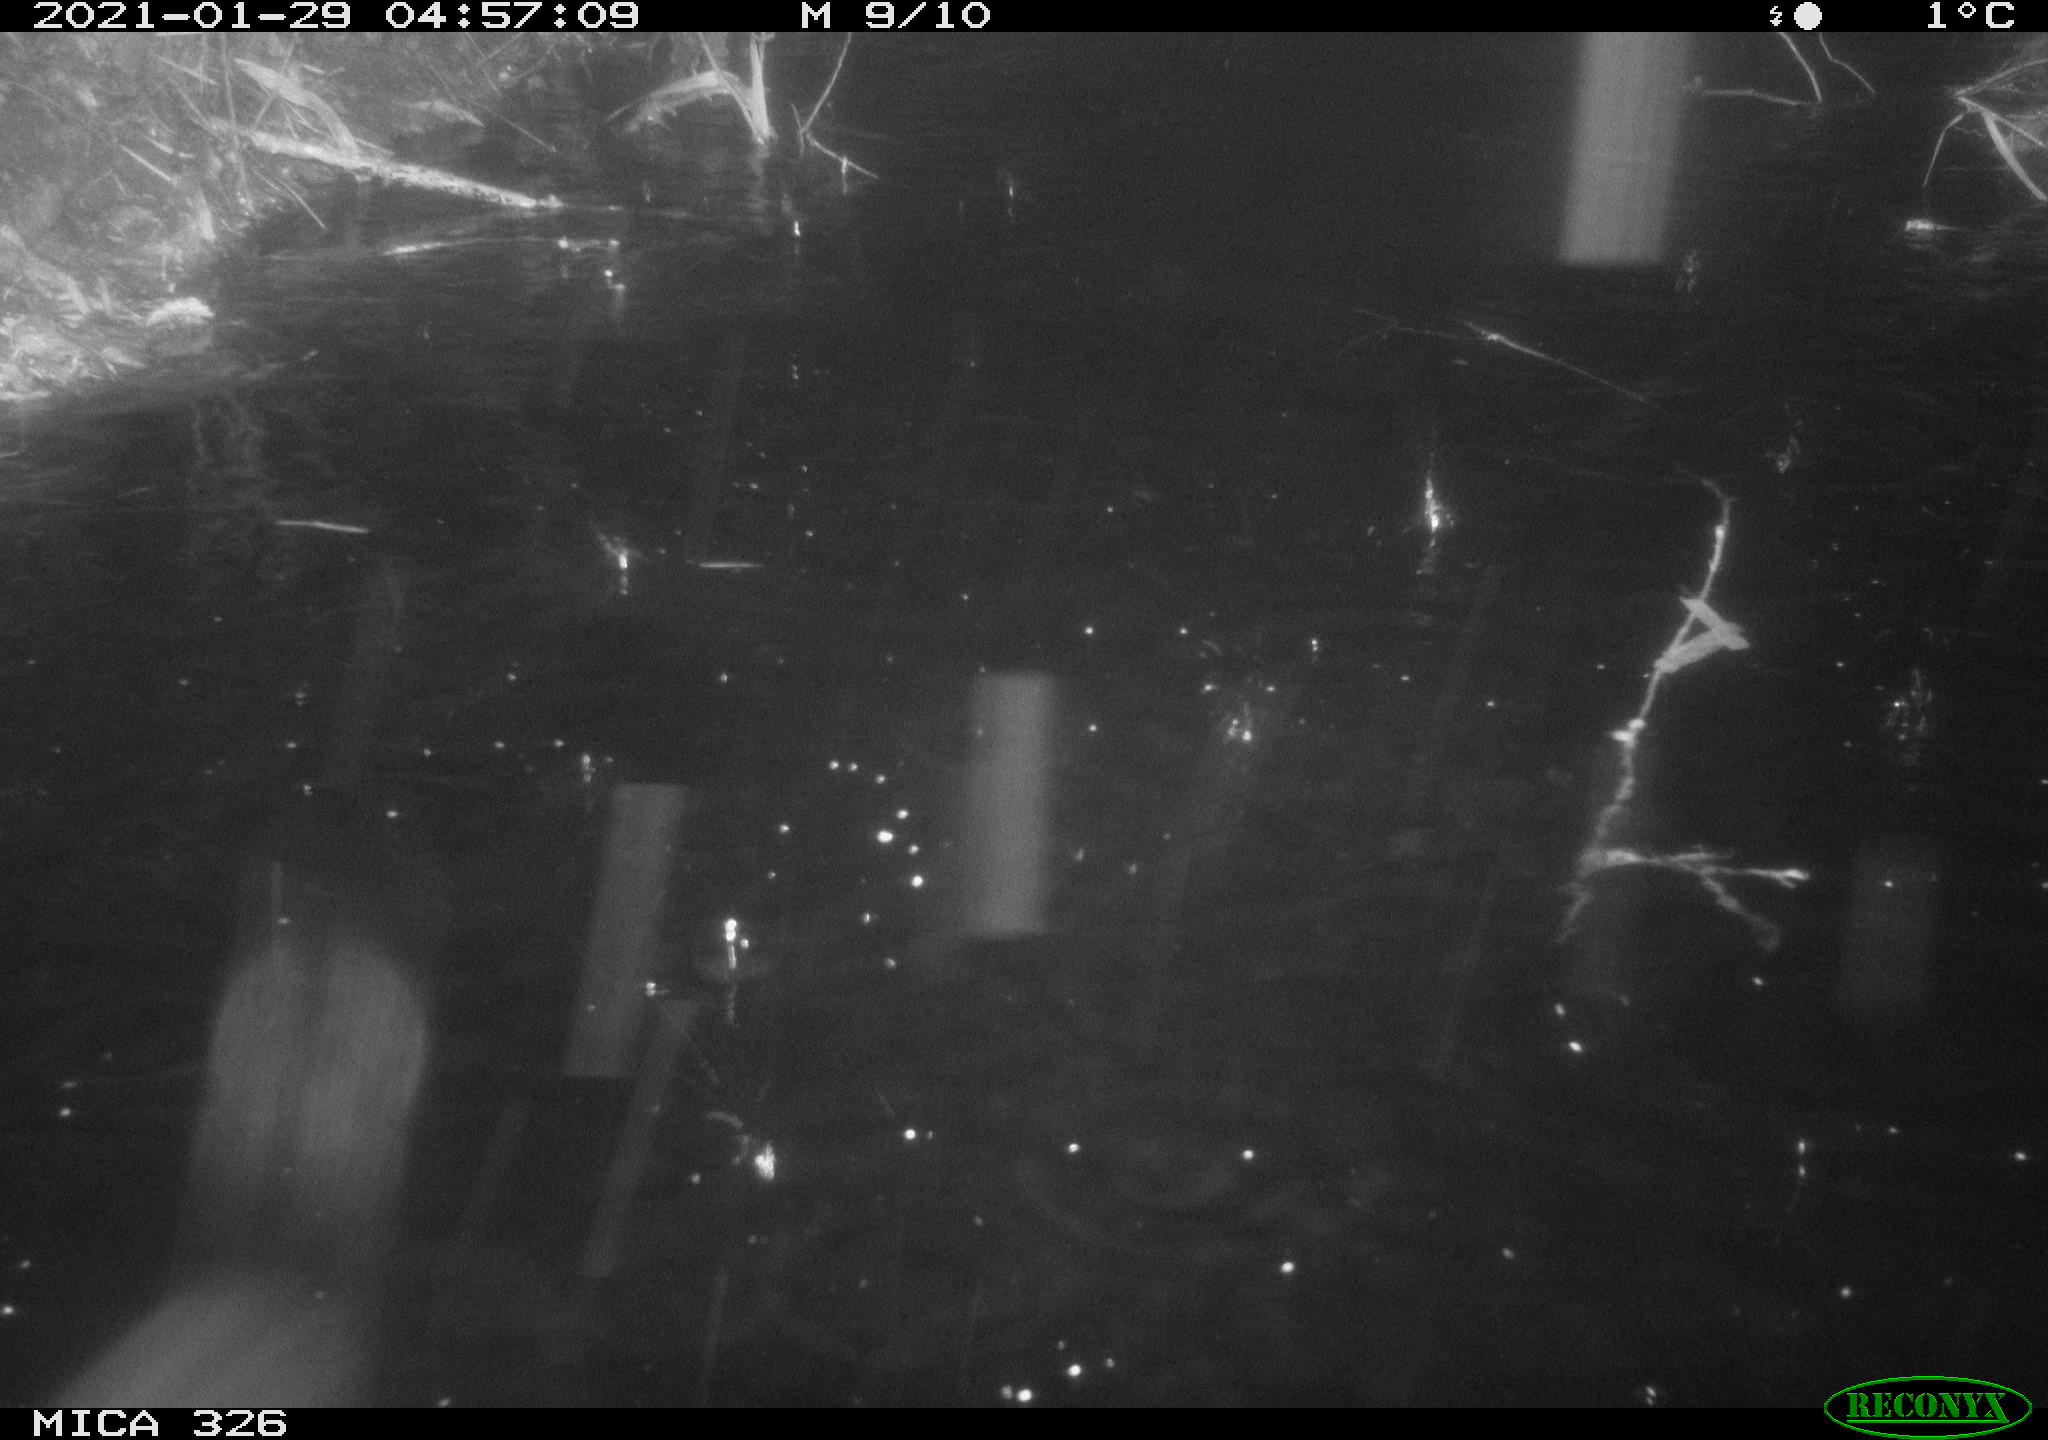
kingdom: Animalia
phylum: Chordata
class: Mammalia
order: Rodentia
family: Myocastoridae
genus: Myocastor
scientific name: Myocastor coypus
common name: Coypu
